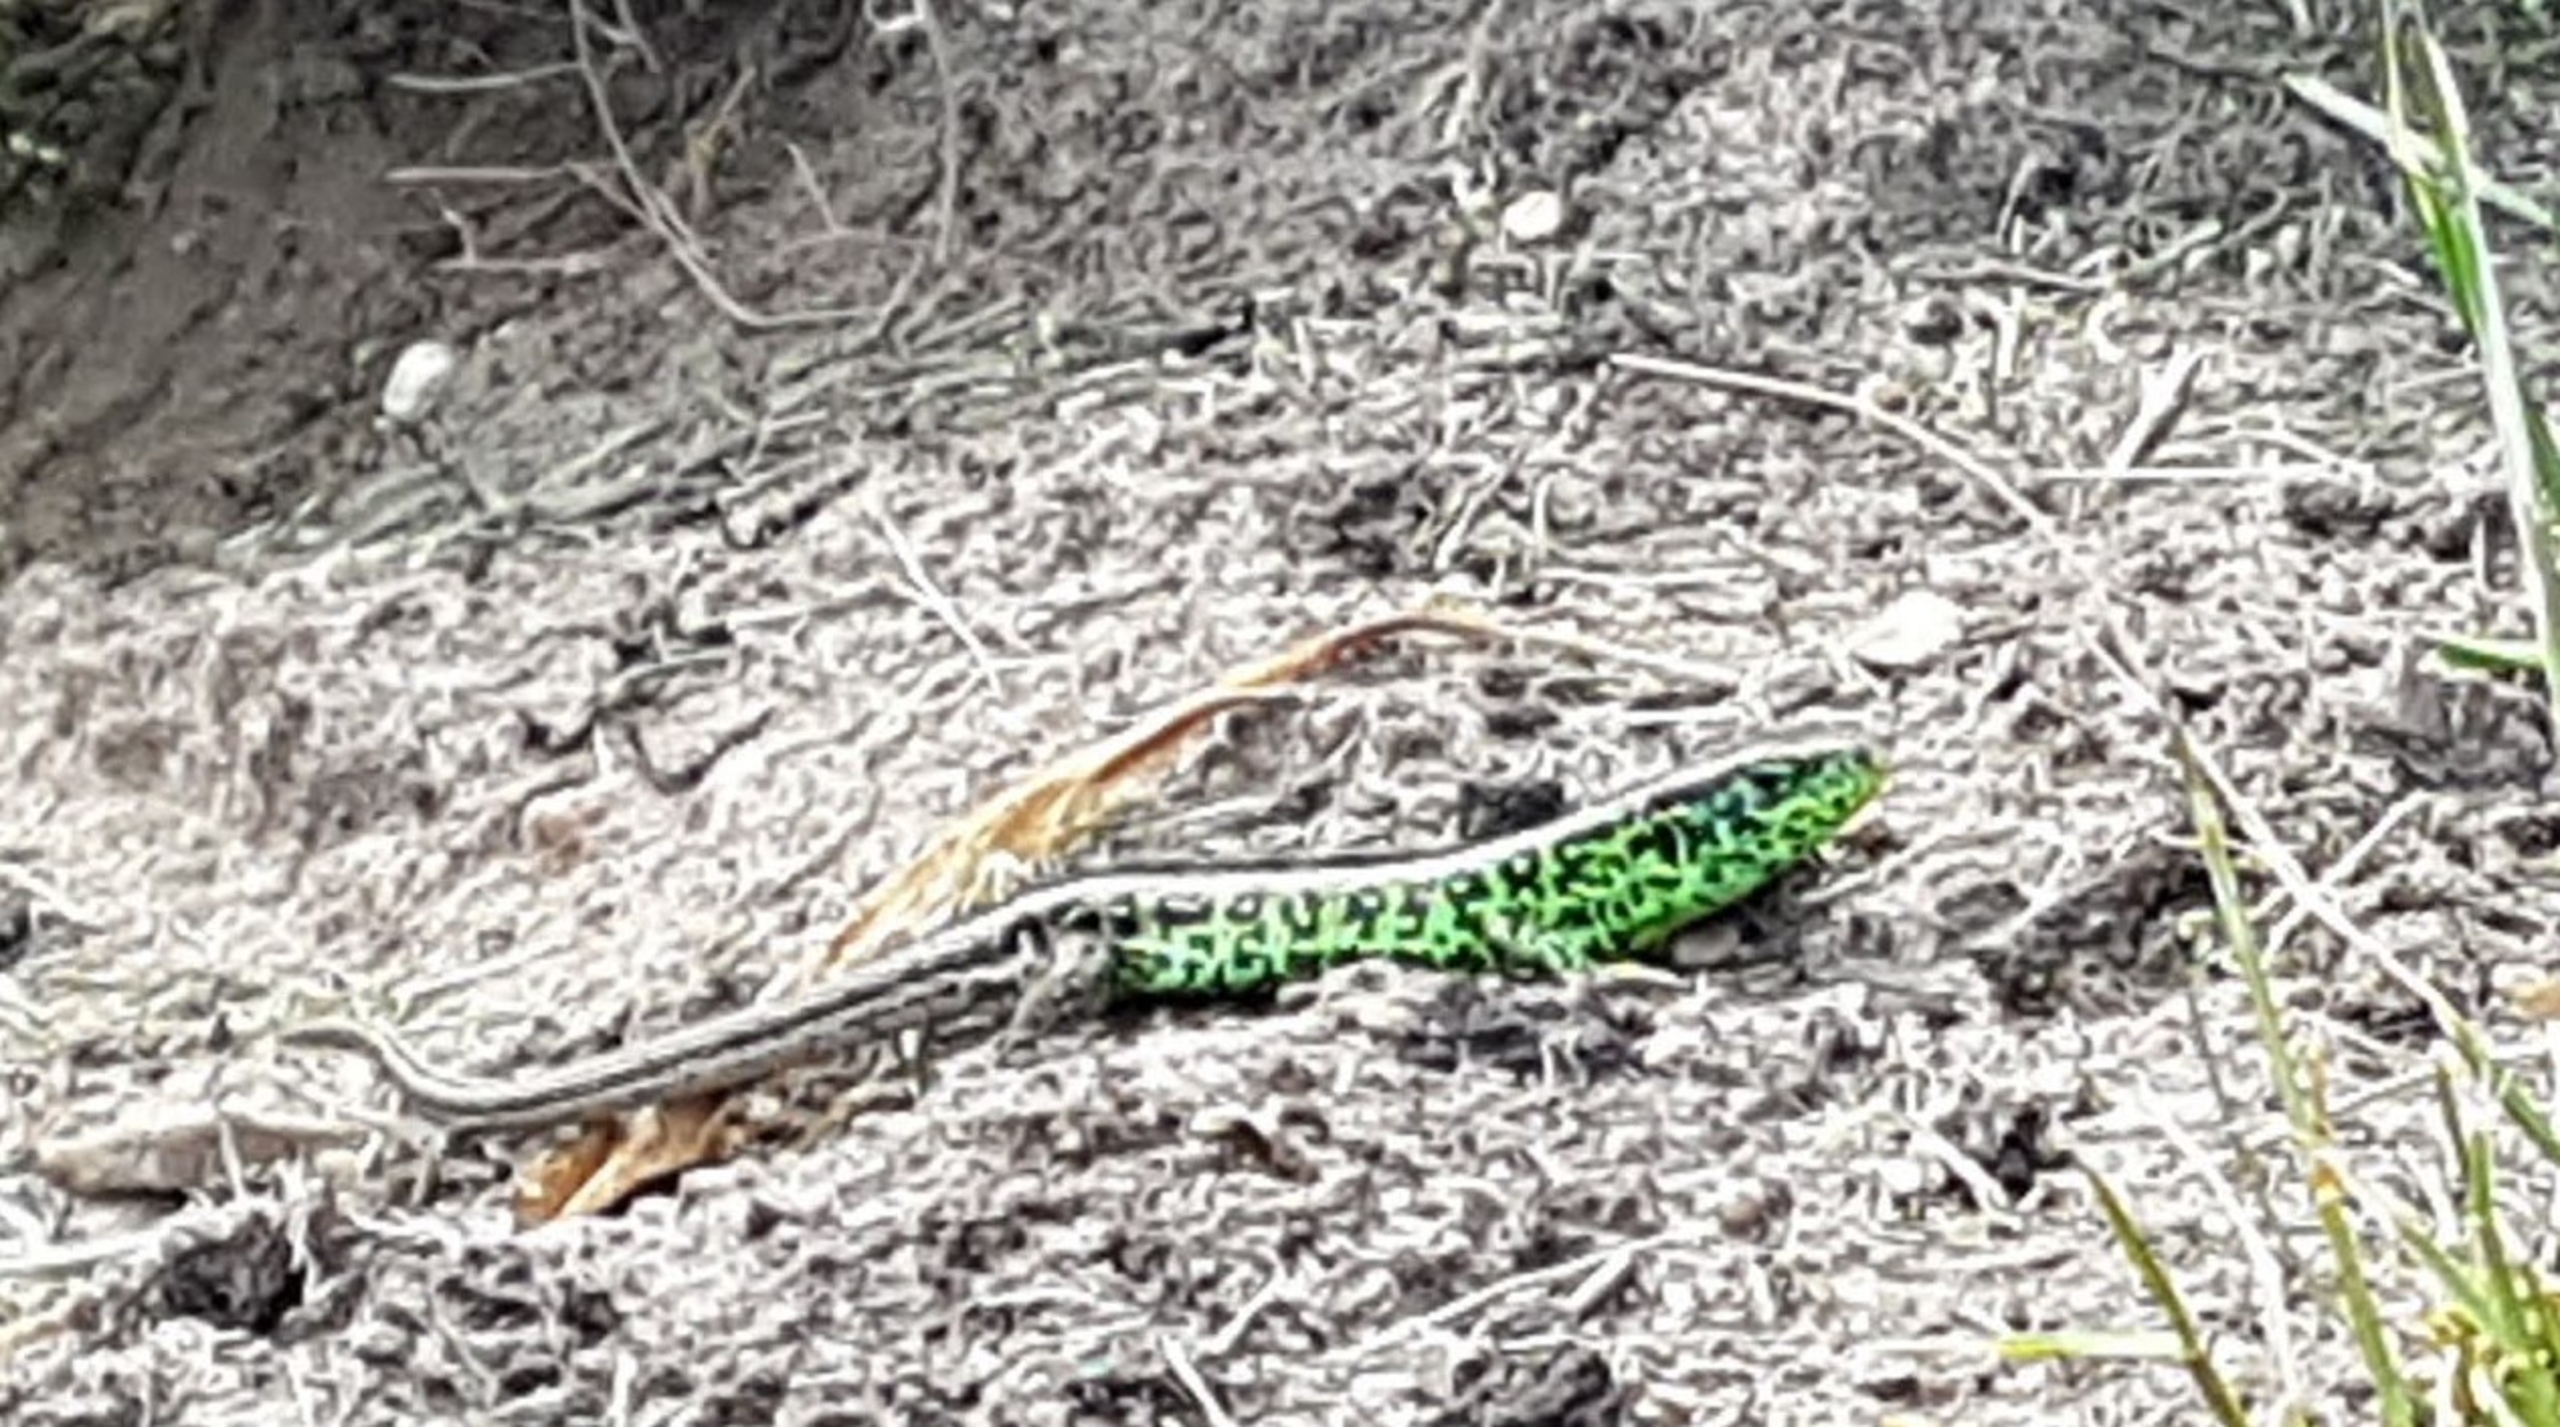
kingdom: Animalia
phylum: Chordata
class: Squamata
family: Lacertidae
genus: Lacerta
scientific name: Lacerta agilis
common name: Markfirben
